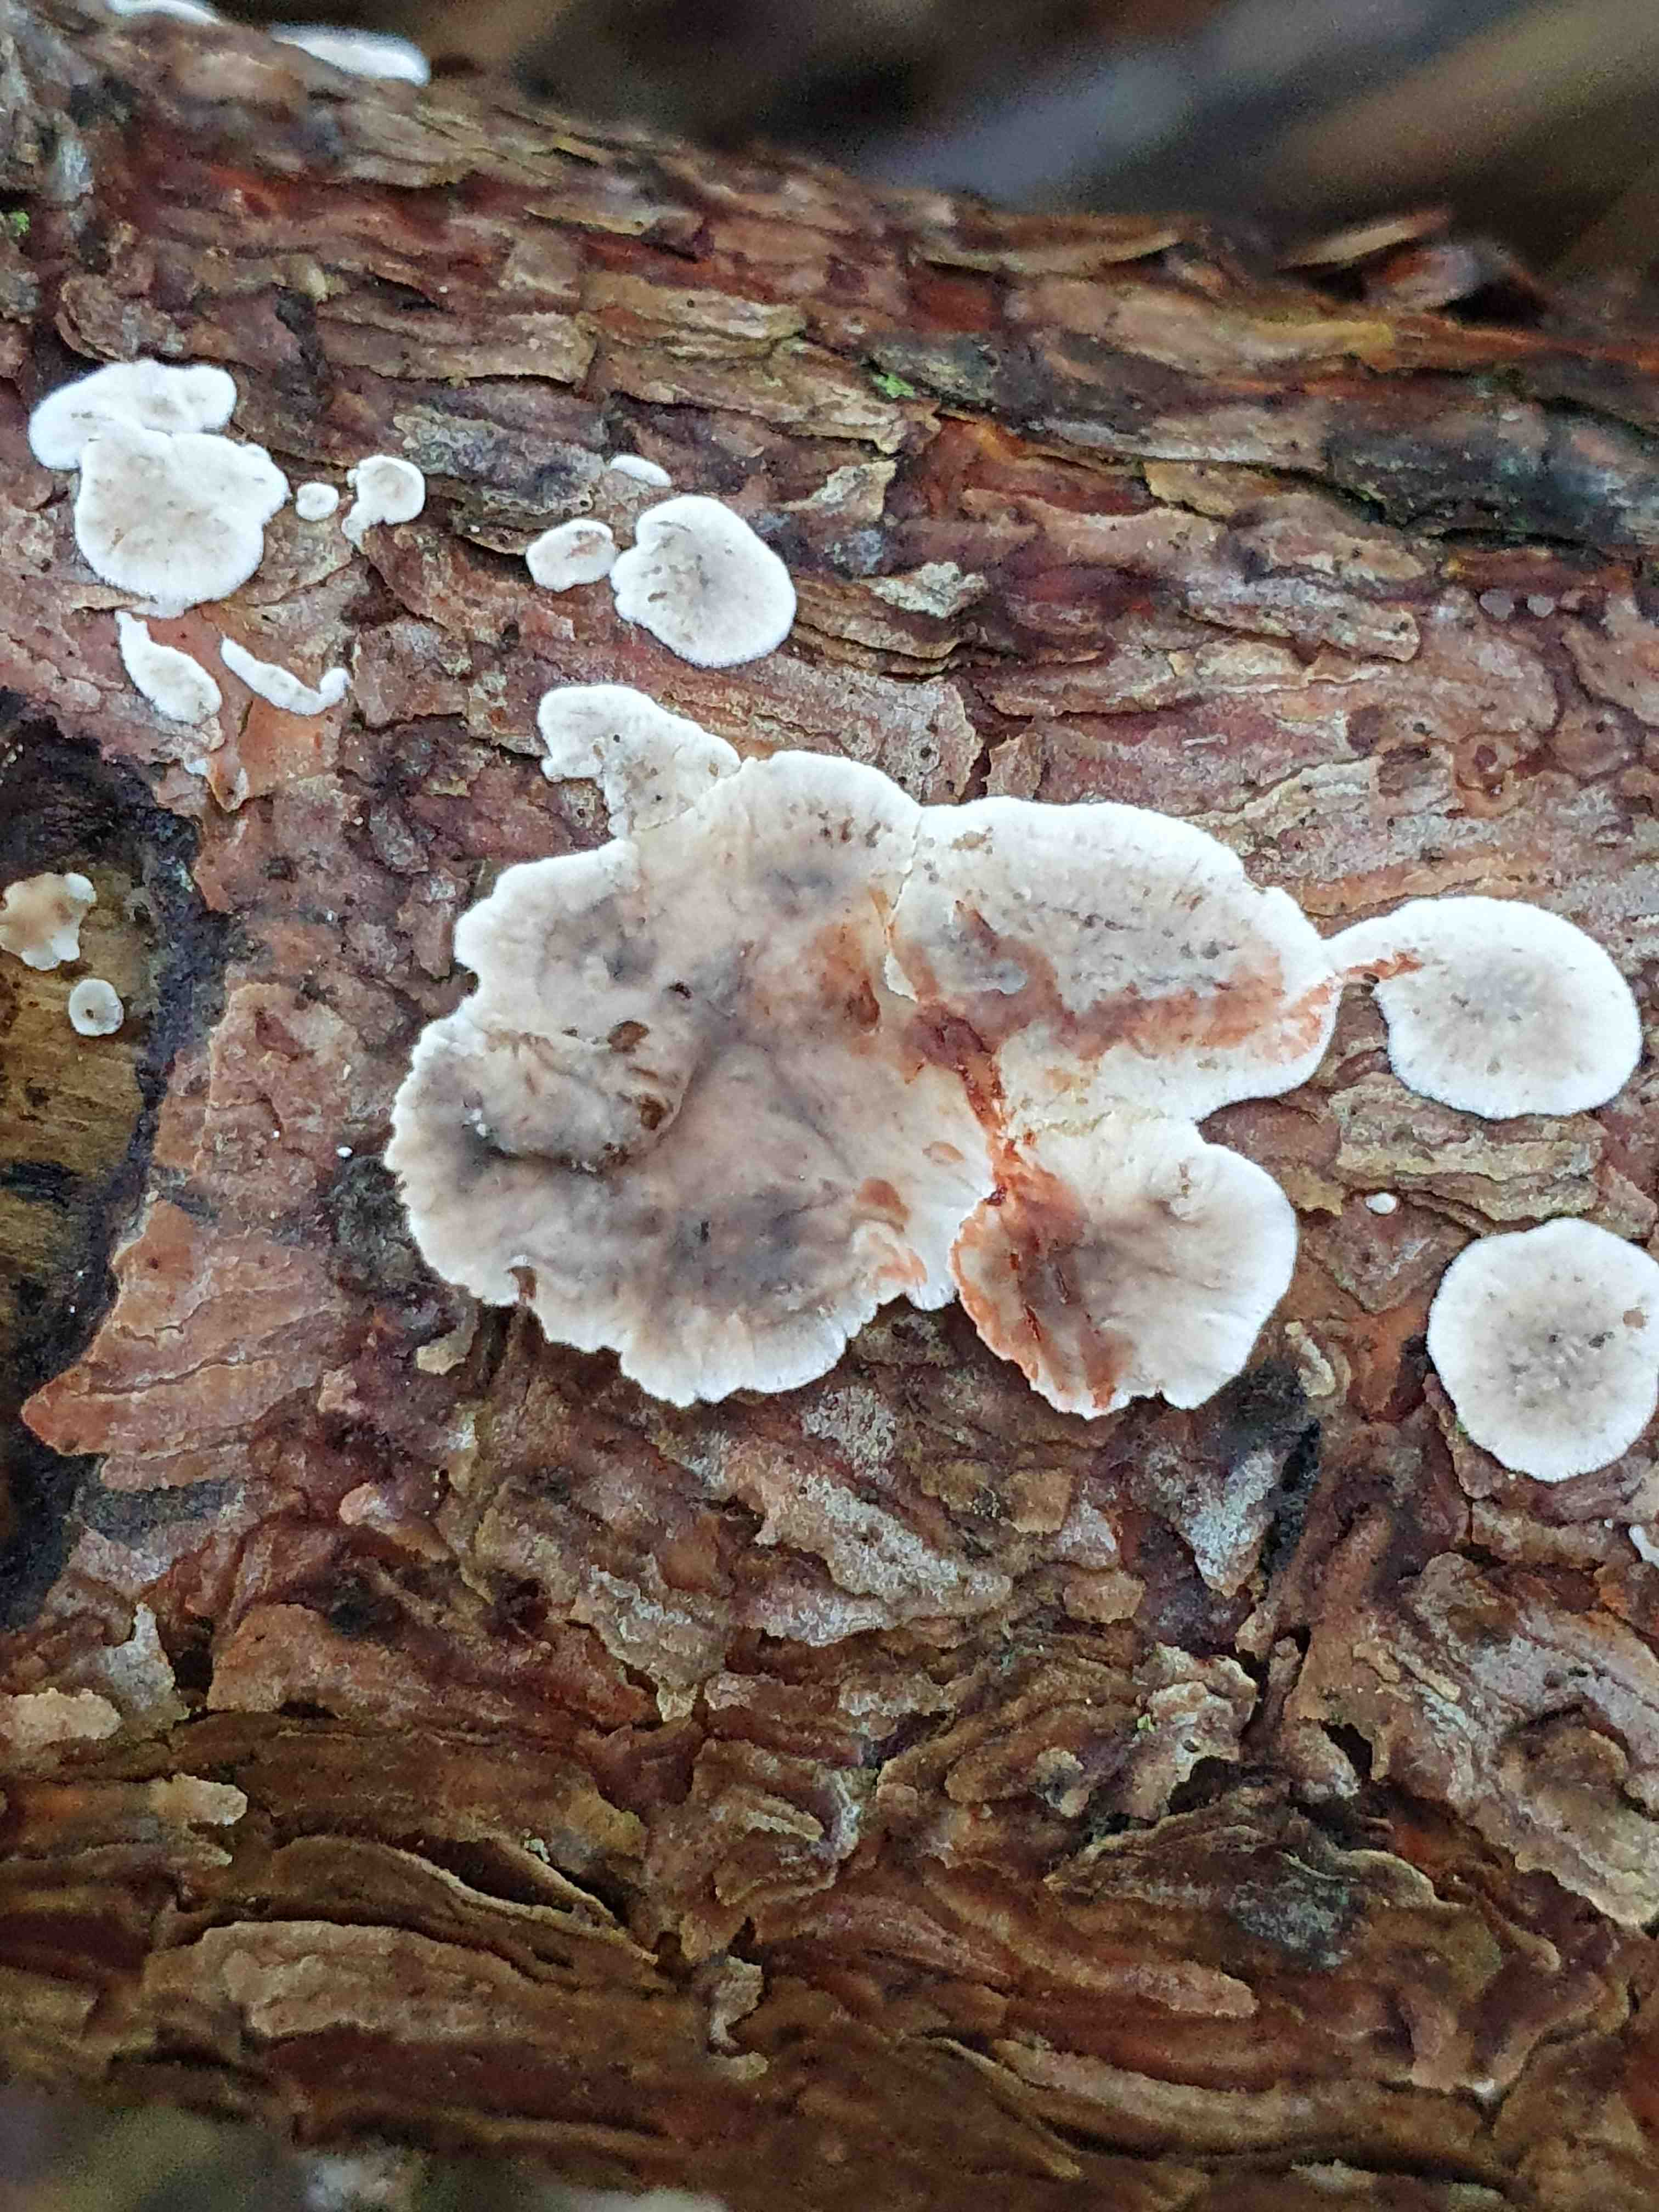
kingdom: Fungi
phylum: Basidiomycota
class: Agaricomycetes
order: Russulales
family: Stereaceae
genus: Stereum
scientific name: Stereum sanguinolentum
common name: blødende lædersvamp
